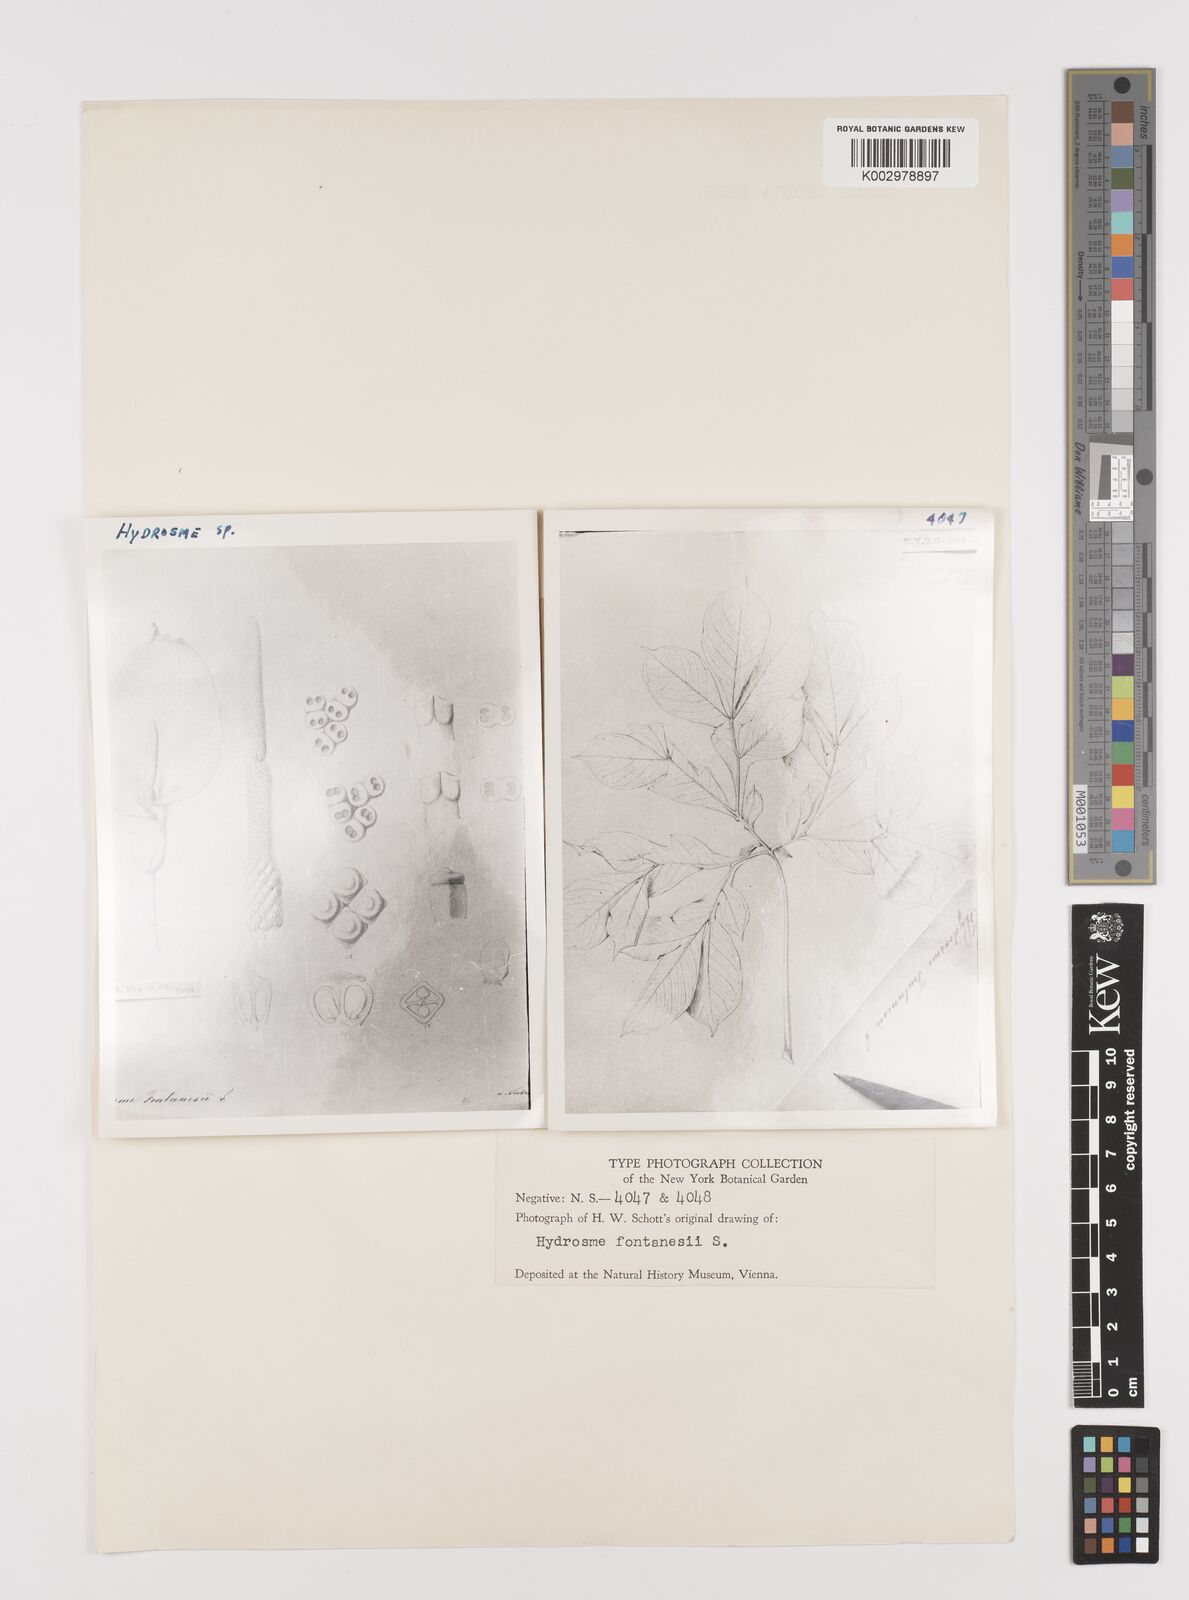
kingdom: Plantae
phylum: Tracheophyta
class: Liliopsida
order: Alismatales
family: Araceae
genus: Amorphophallus
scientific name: Amorphophallus abyssinicus
